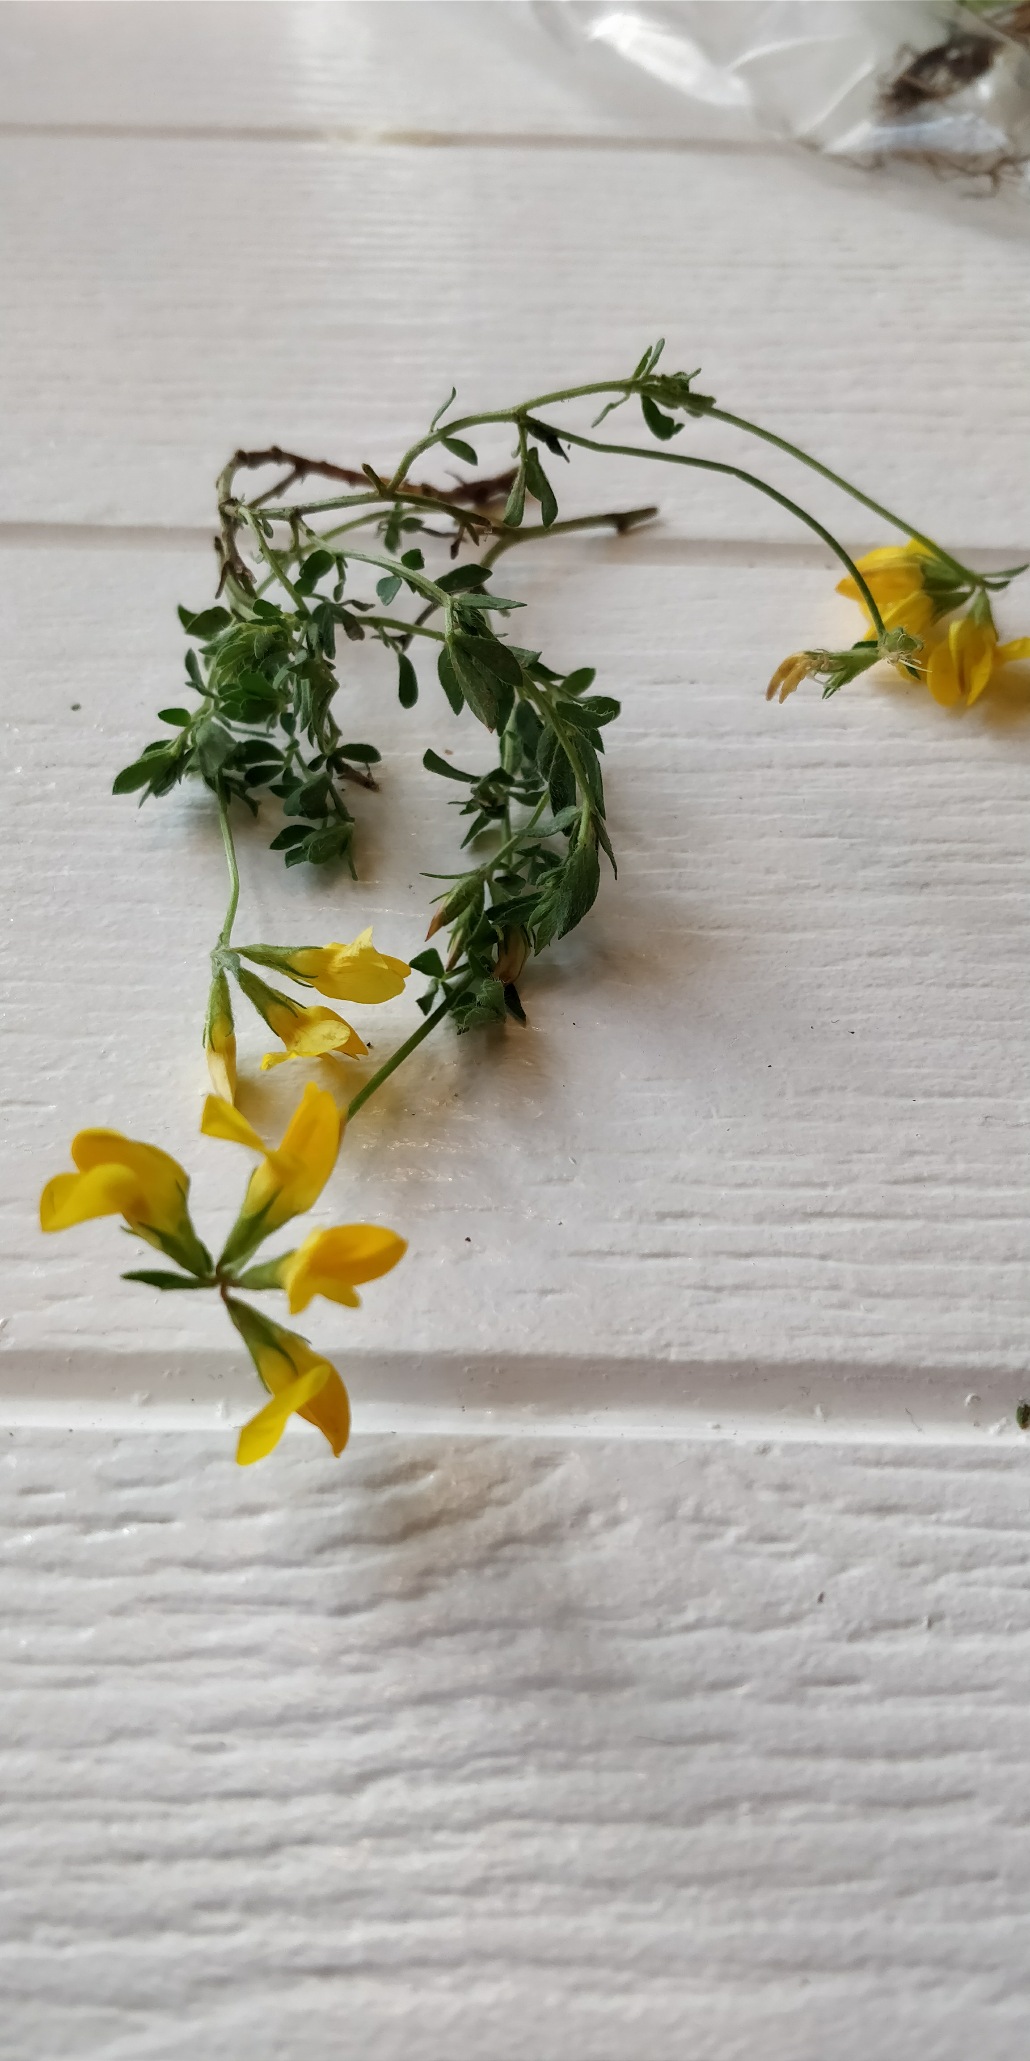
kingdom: Plantae
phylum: Tracheophyta
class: Magnoliopsida
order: Fabales
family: Fabaceae
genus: Lotus
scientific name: Lotus corniculatus
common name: Almindelig kællingetand
